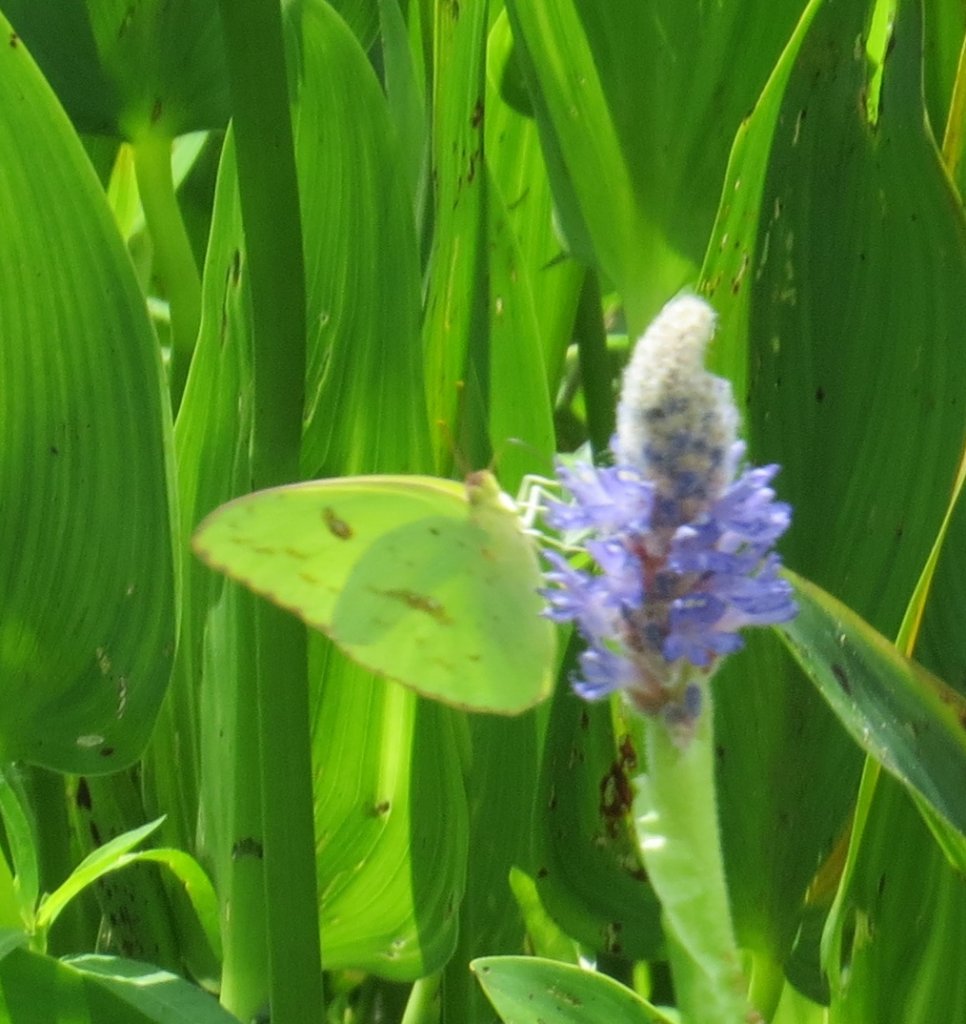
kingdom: Animalia
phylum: Arthropoda
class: Insecta
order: Lepidoptera
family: Pieridae
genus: Phoebis
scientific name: Phoebis sennae
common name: Cloudless Sulphur
